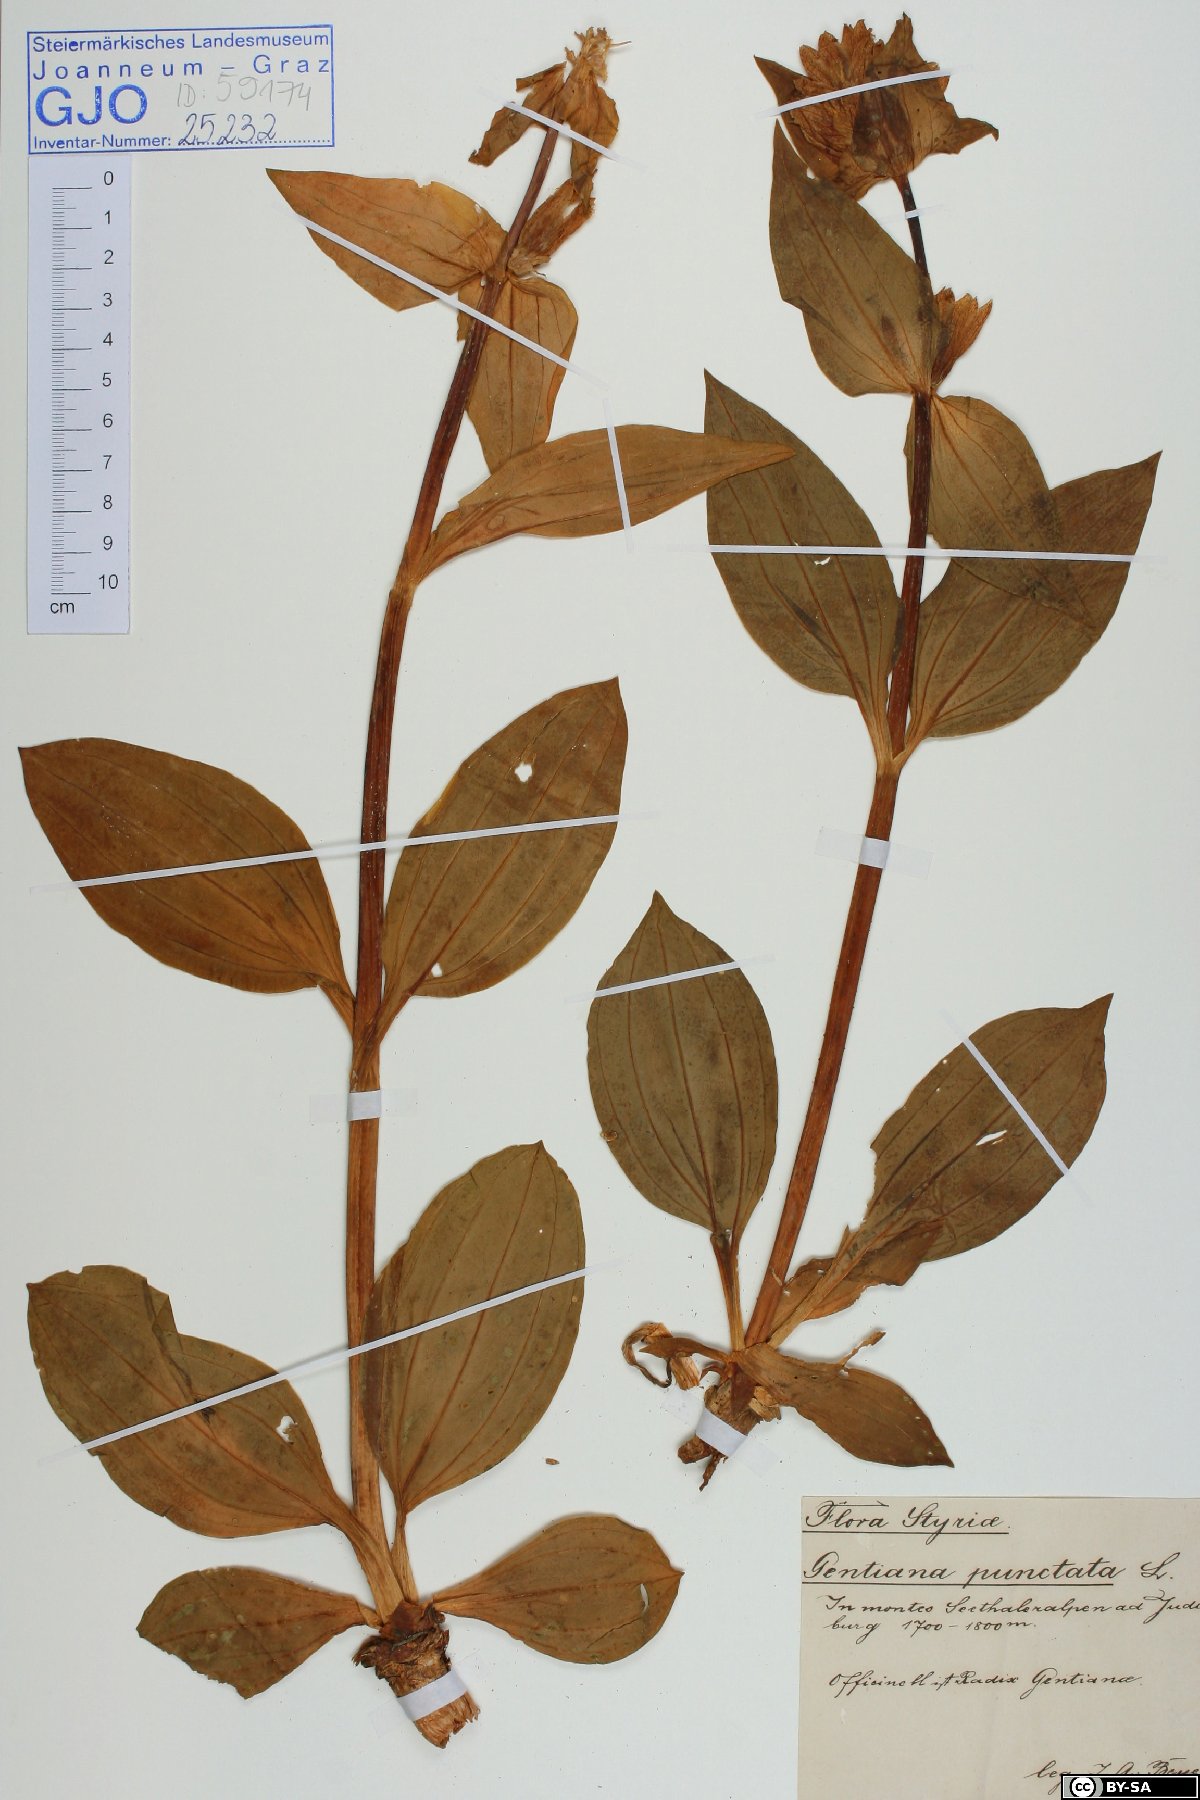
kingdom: Plantae
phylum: Tracheophyta
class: Magnoliopsida
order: Gentianales
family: Gentianaceae
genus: Gentiana
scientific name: Gentiana punctata
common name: Spotted gentian
